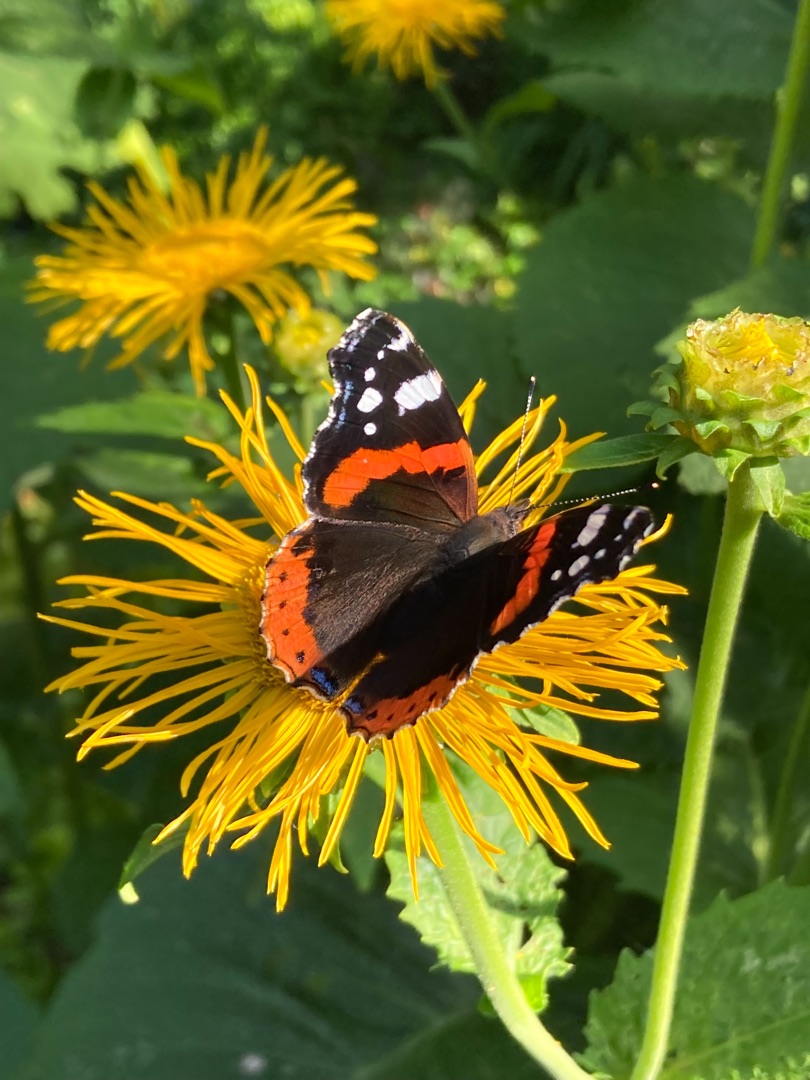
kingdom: Animalia
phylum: Arthropoda
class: Insecta
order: Lepidoptera
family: Nymphalidae
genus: Vanessa
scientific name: Vanessa atalanta
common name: Admiral
